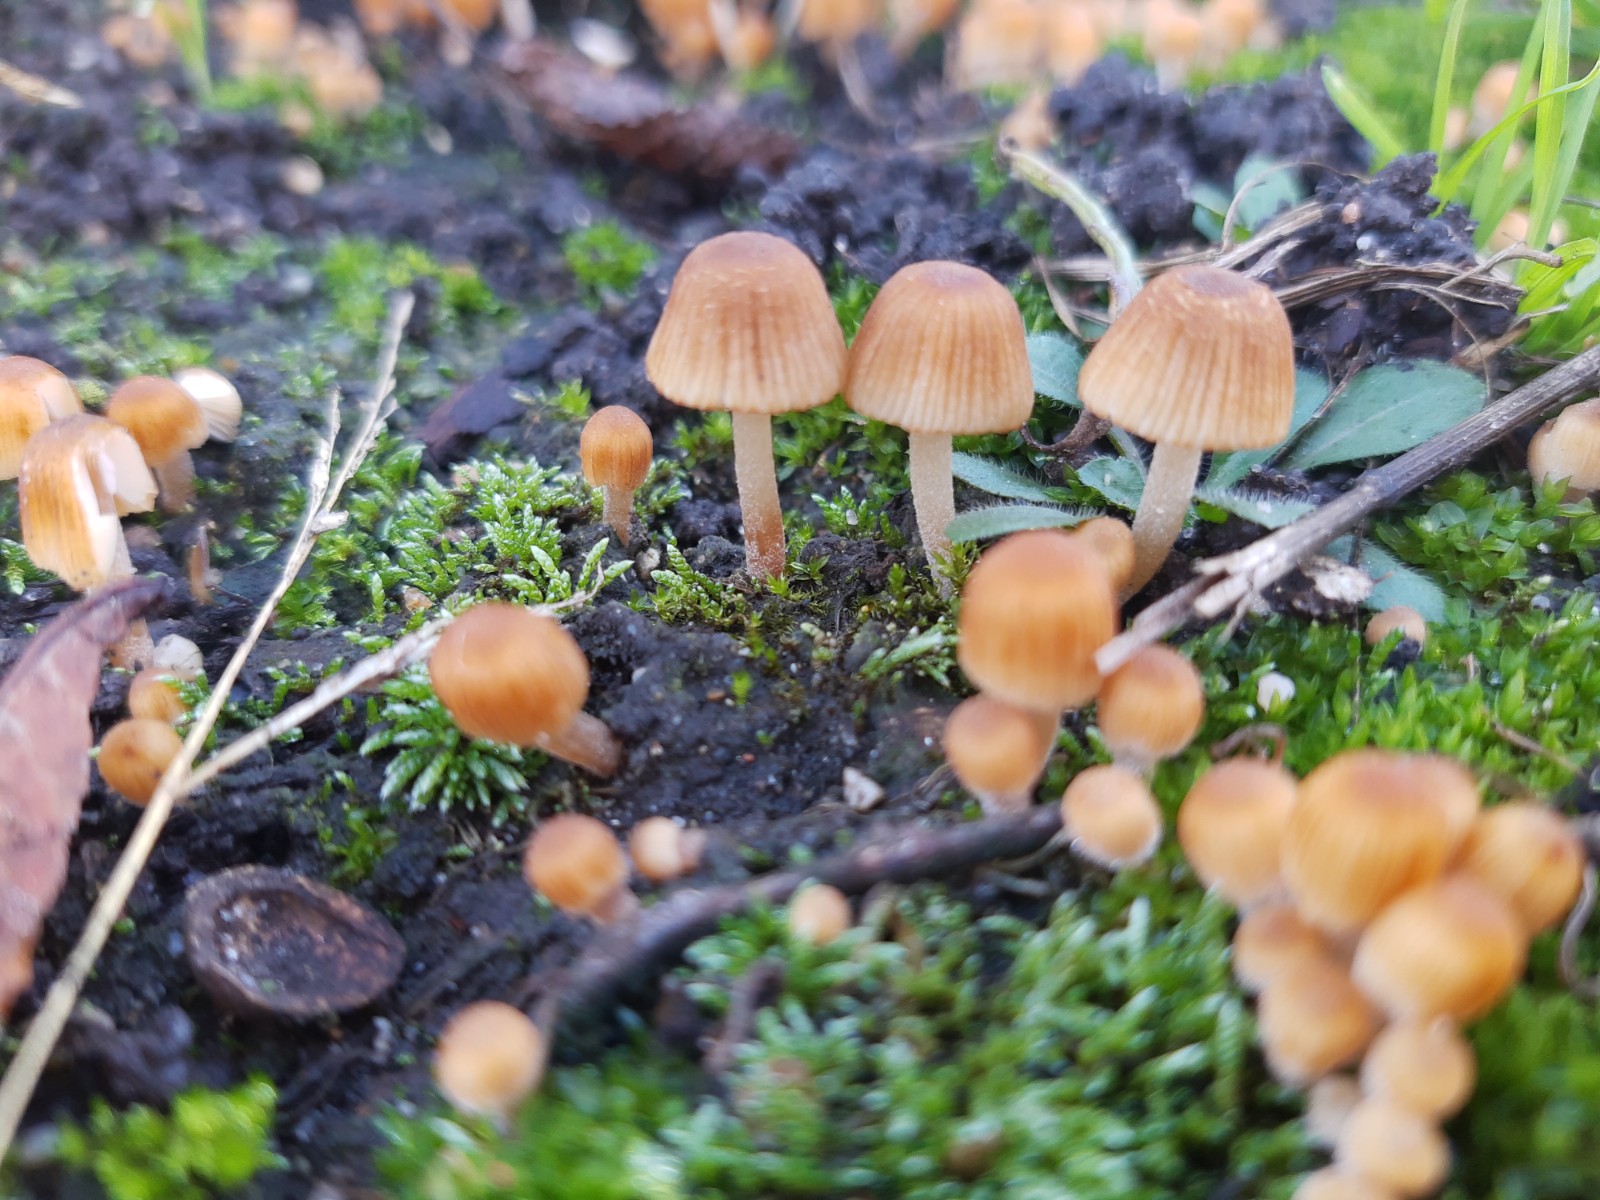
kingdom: Fungi
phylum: Basidiomycota
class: Agaricomycetes
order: Agaricales
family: Psathyrellaceae
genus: Coprinellus
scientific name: Coprinellus disseminatus
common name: bredsået blækhat
